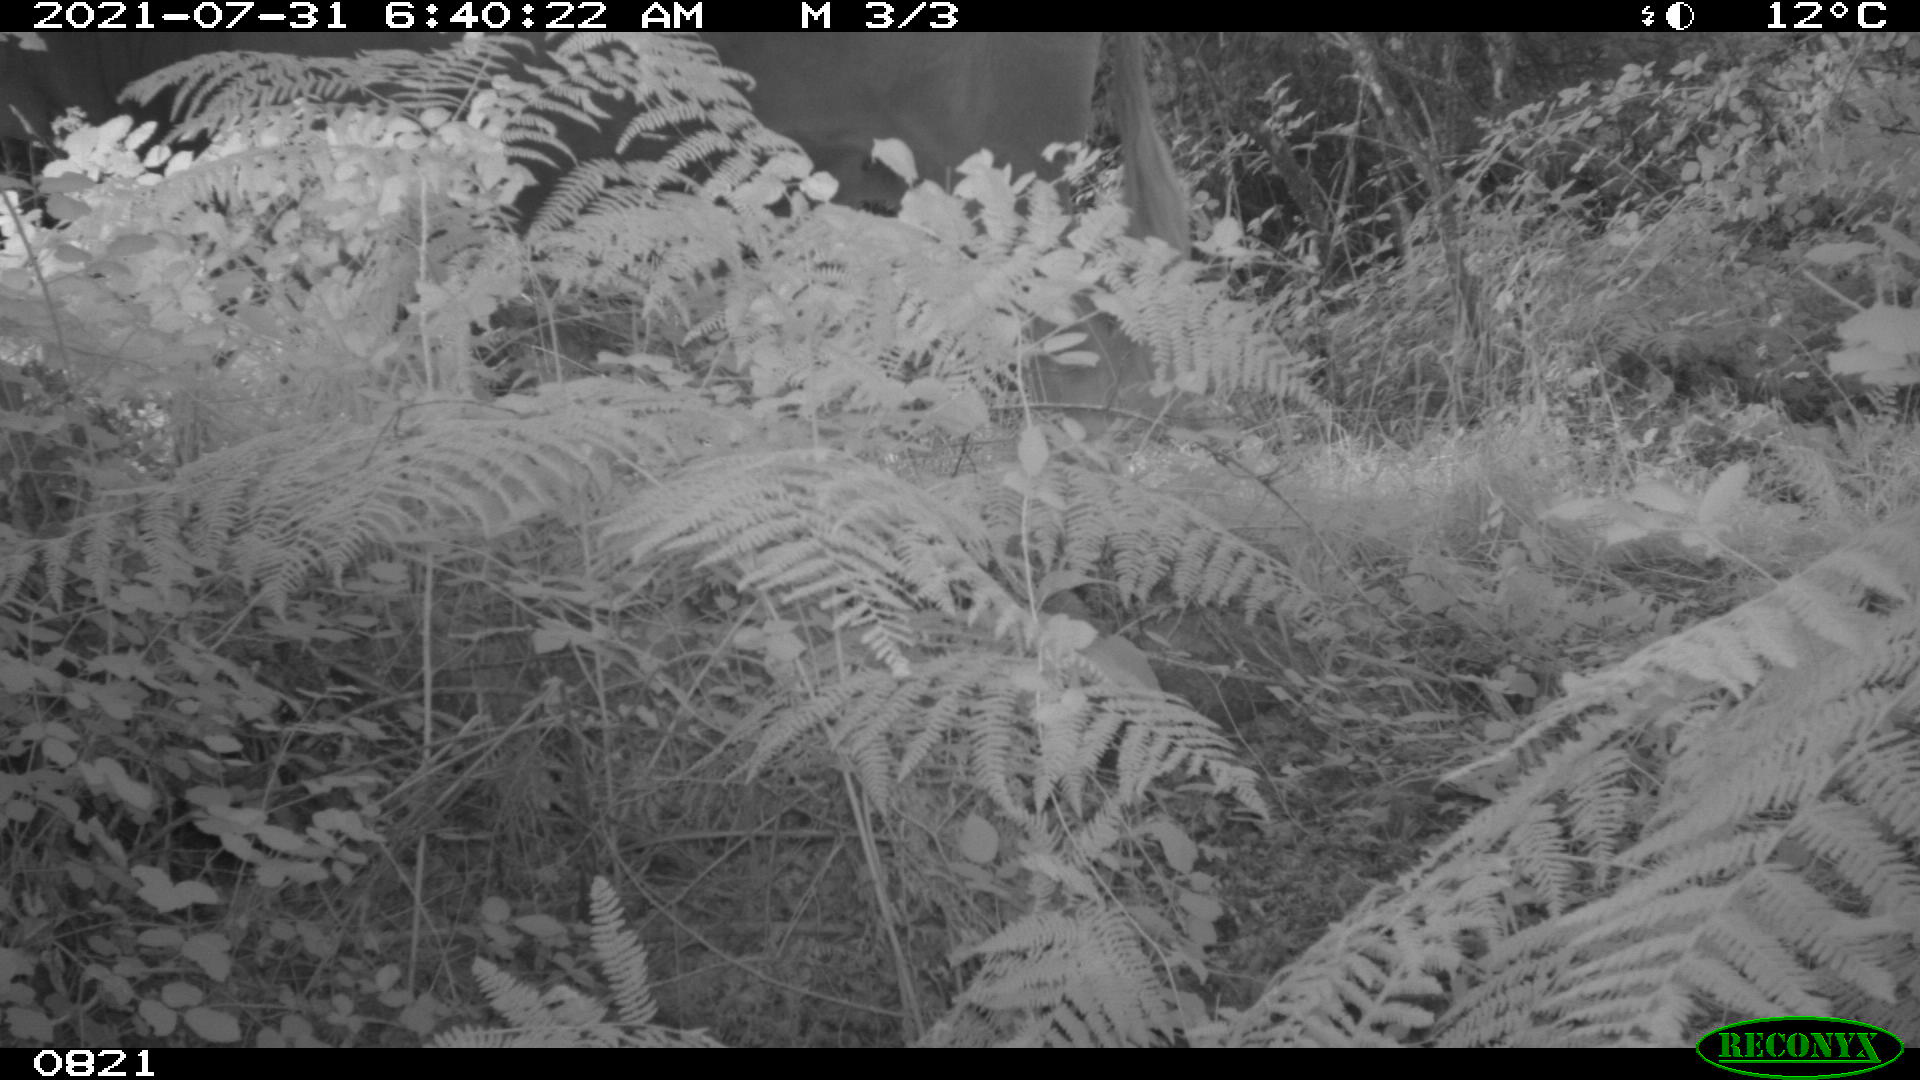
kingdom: Animalia
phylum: Chordata
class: Mammalia
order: Artiodactyla
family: Bovidae
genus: Bos
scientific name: Bos taurus
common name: Domesticated cattle
